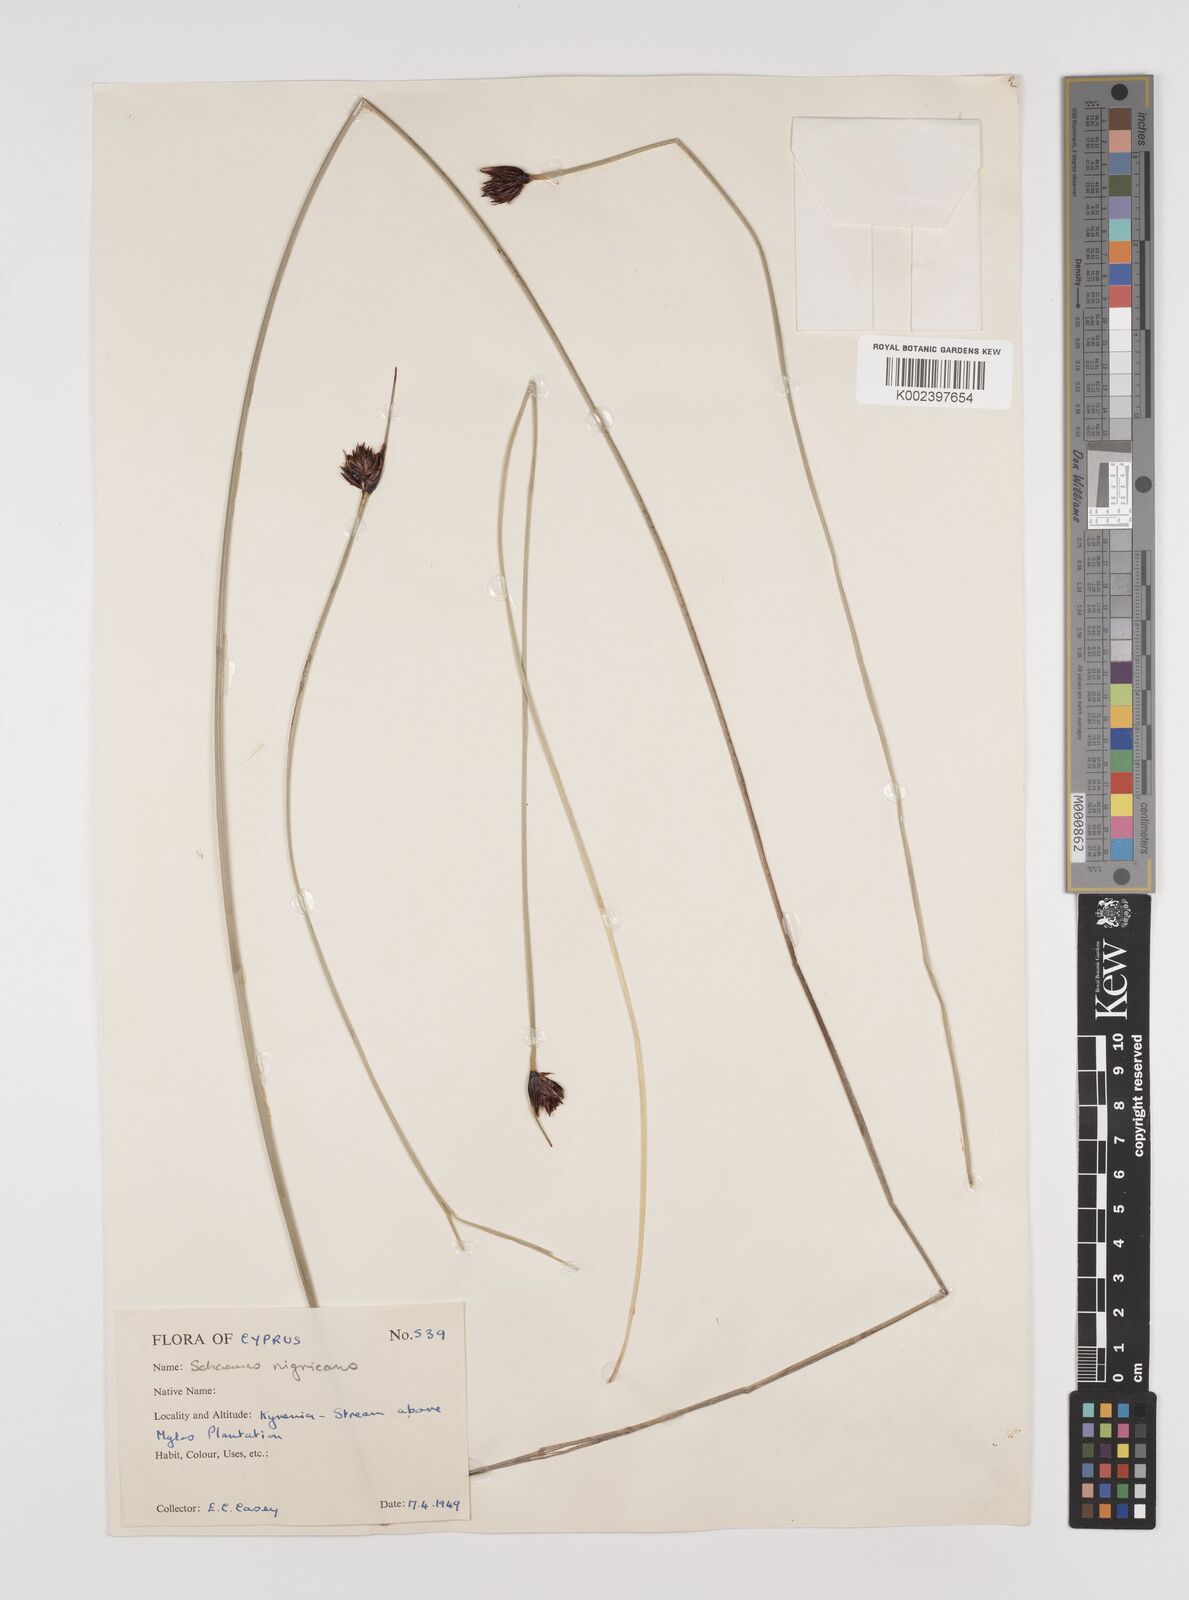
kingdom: Plantae
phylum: Tracheophyta
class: Liliopsida
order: Poales
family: Cyperaceae
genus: Schoenus
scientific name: Schoenus nigricans
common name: Black bog-rush
